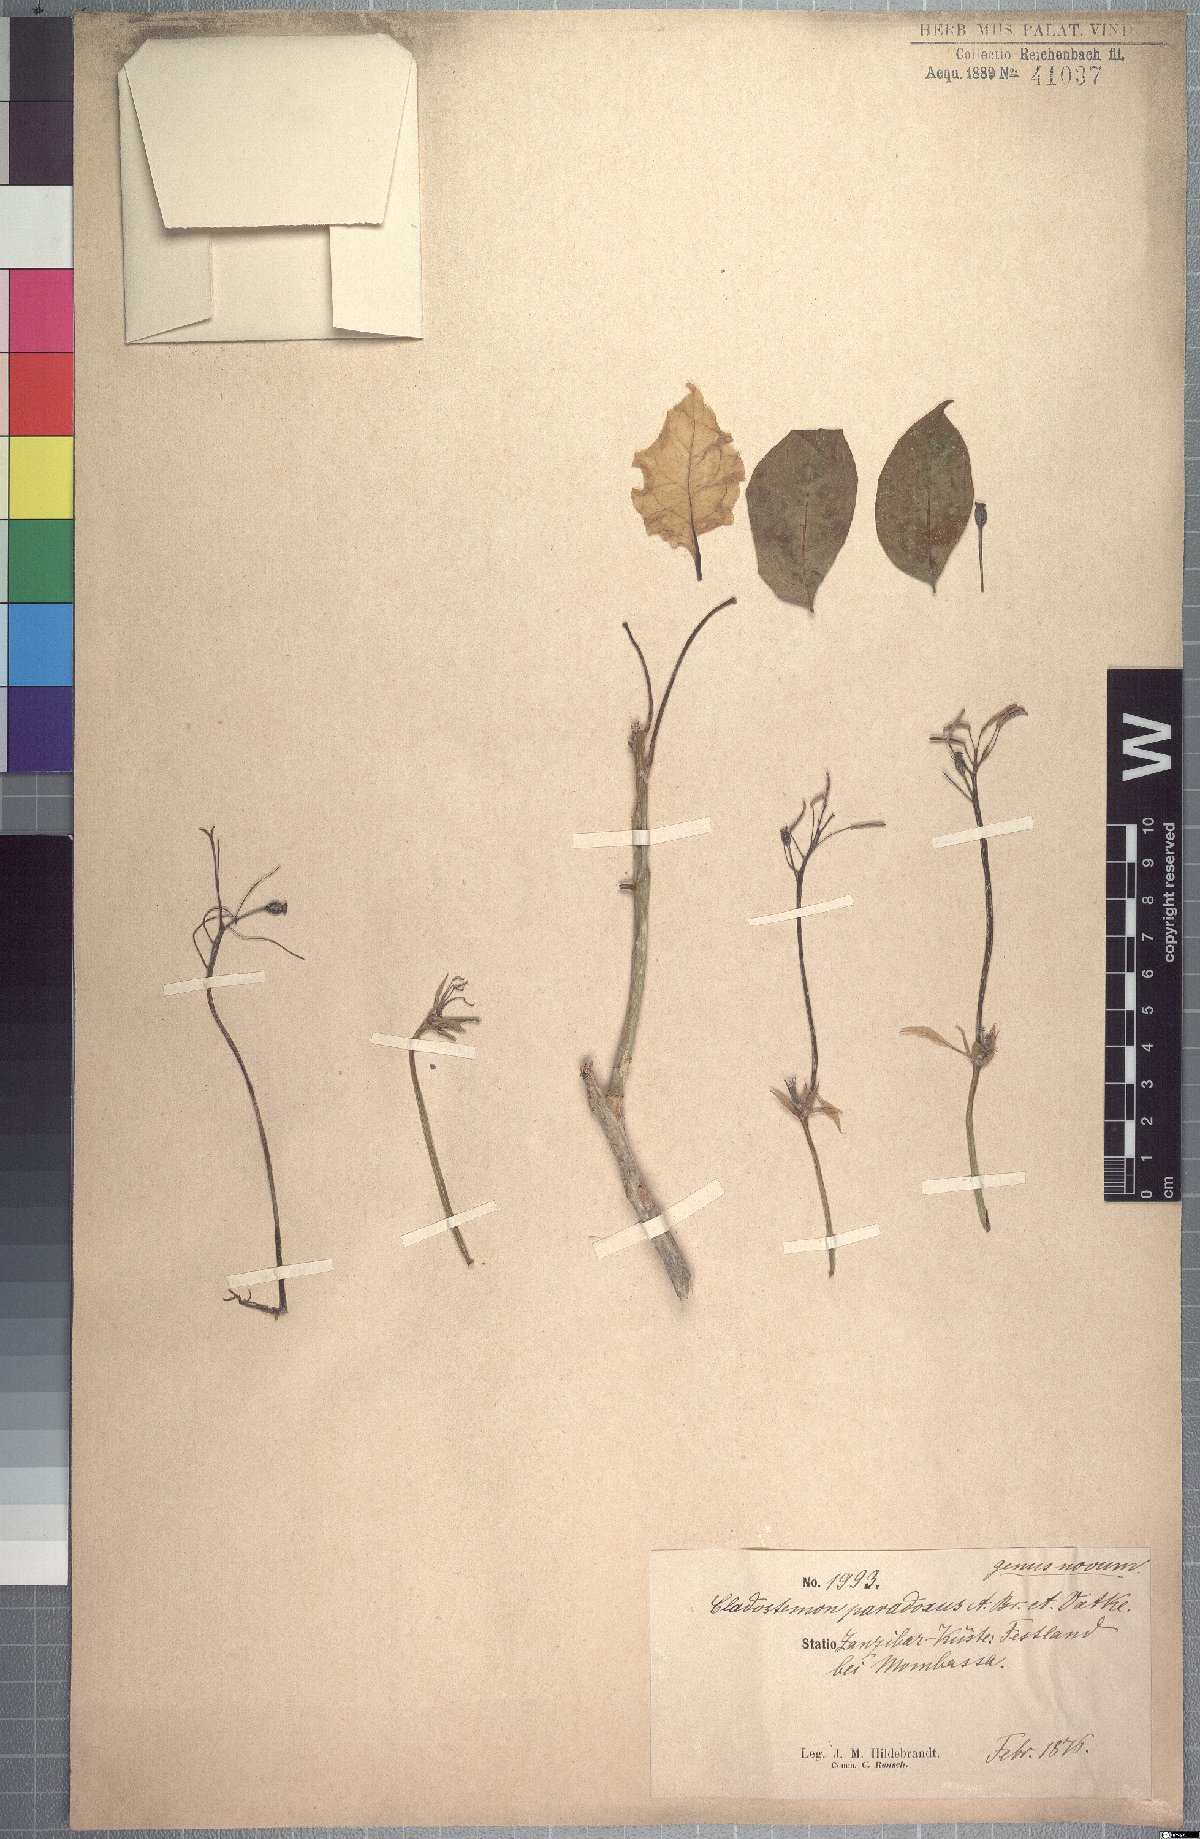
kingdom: Plantae
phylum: Tracheophyta
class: Magnoliopsida
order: Brassicales
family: Capparaceae
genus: Cladostemon
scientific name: Cladostemon kirkii
